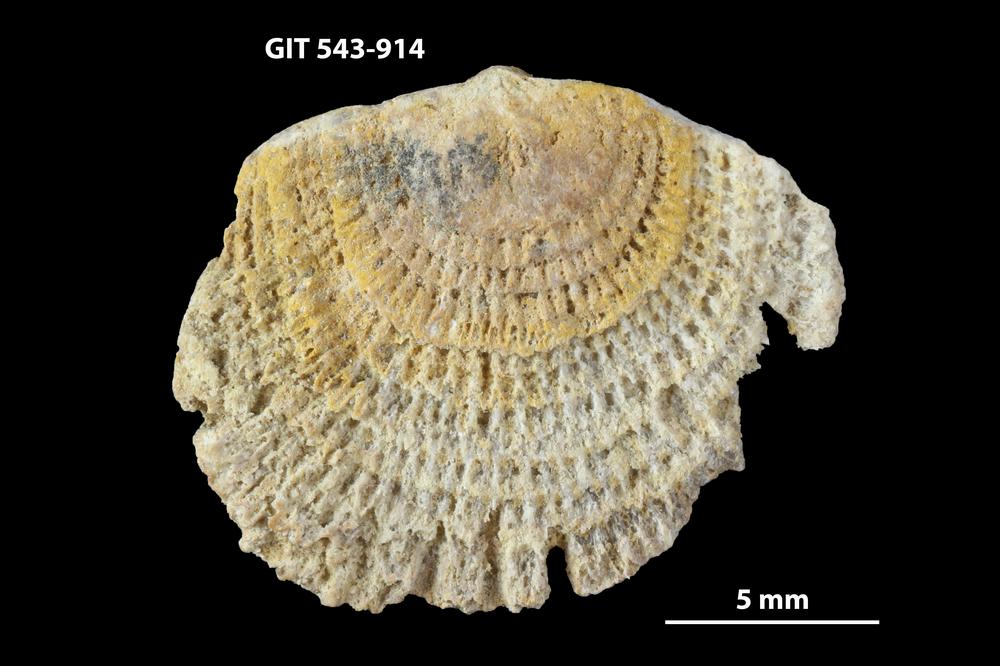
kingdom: Animalia
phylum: Brachiopoda
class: Rhynchonellata
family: Clitambonitidae
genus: Clitambonites
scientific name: Clitambonites
